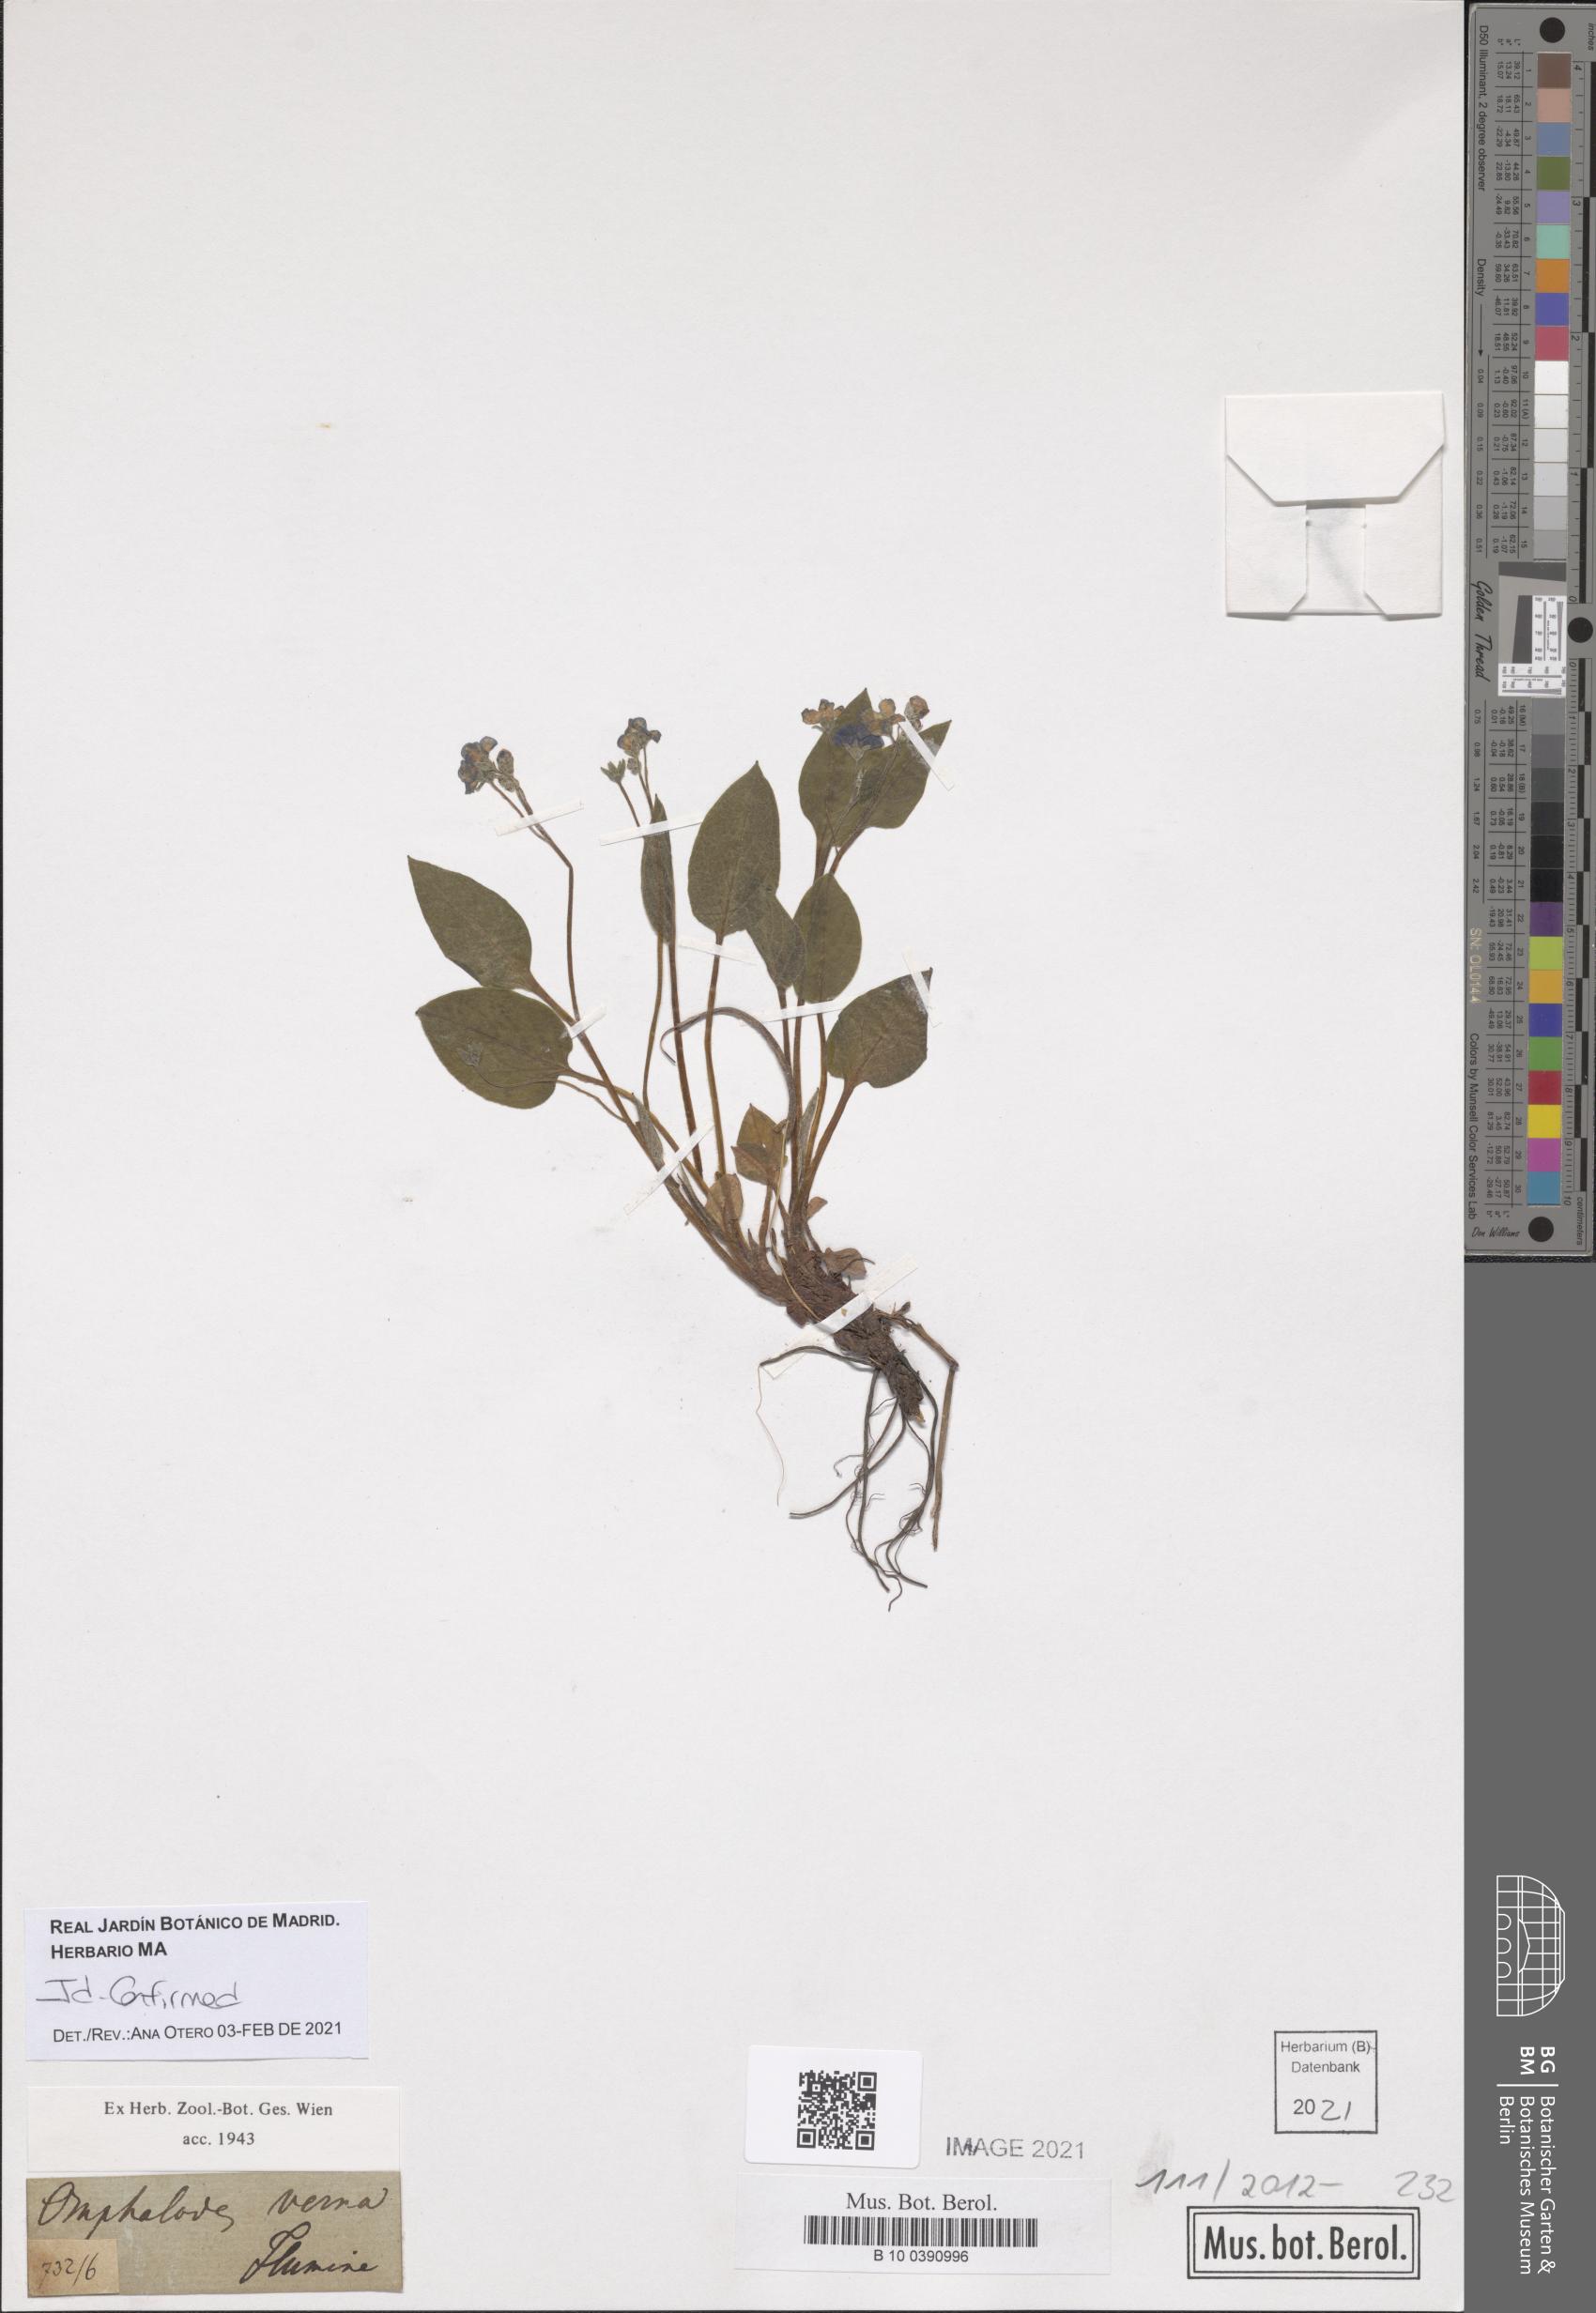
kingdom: Plantae
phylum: Tracheophyta
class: Magnoliopsida
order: Boraginales
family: Boraginaceae
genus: Omphalodes
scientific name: Omphalodes verna
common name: Blue-eyed-mary
